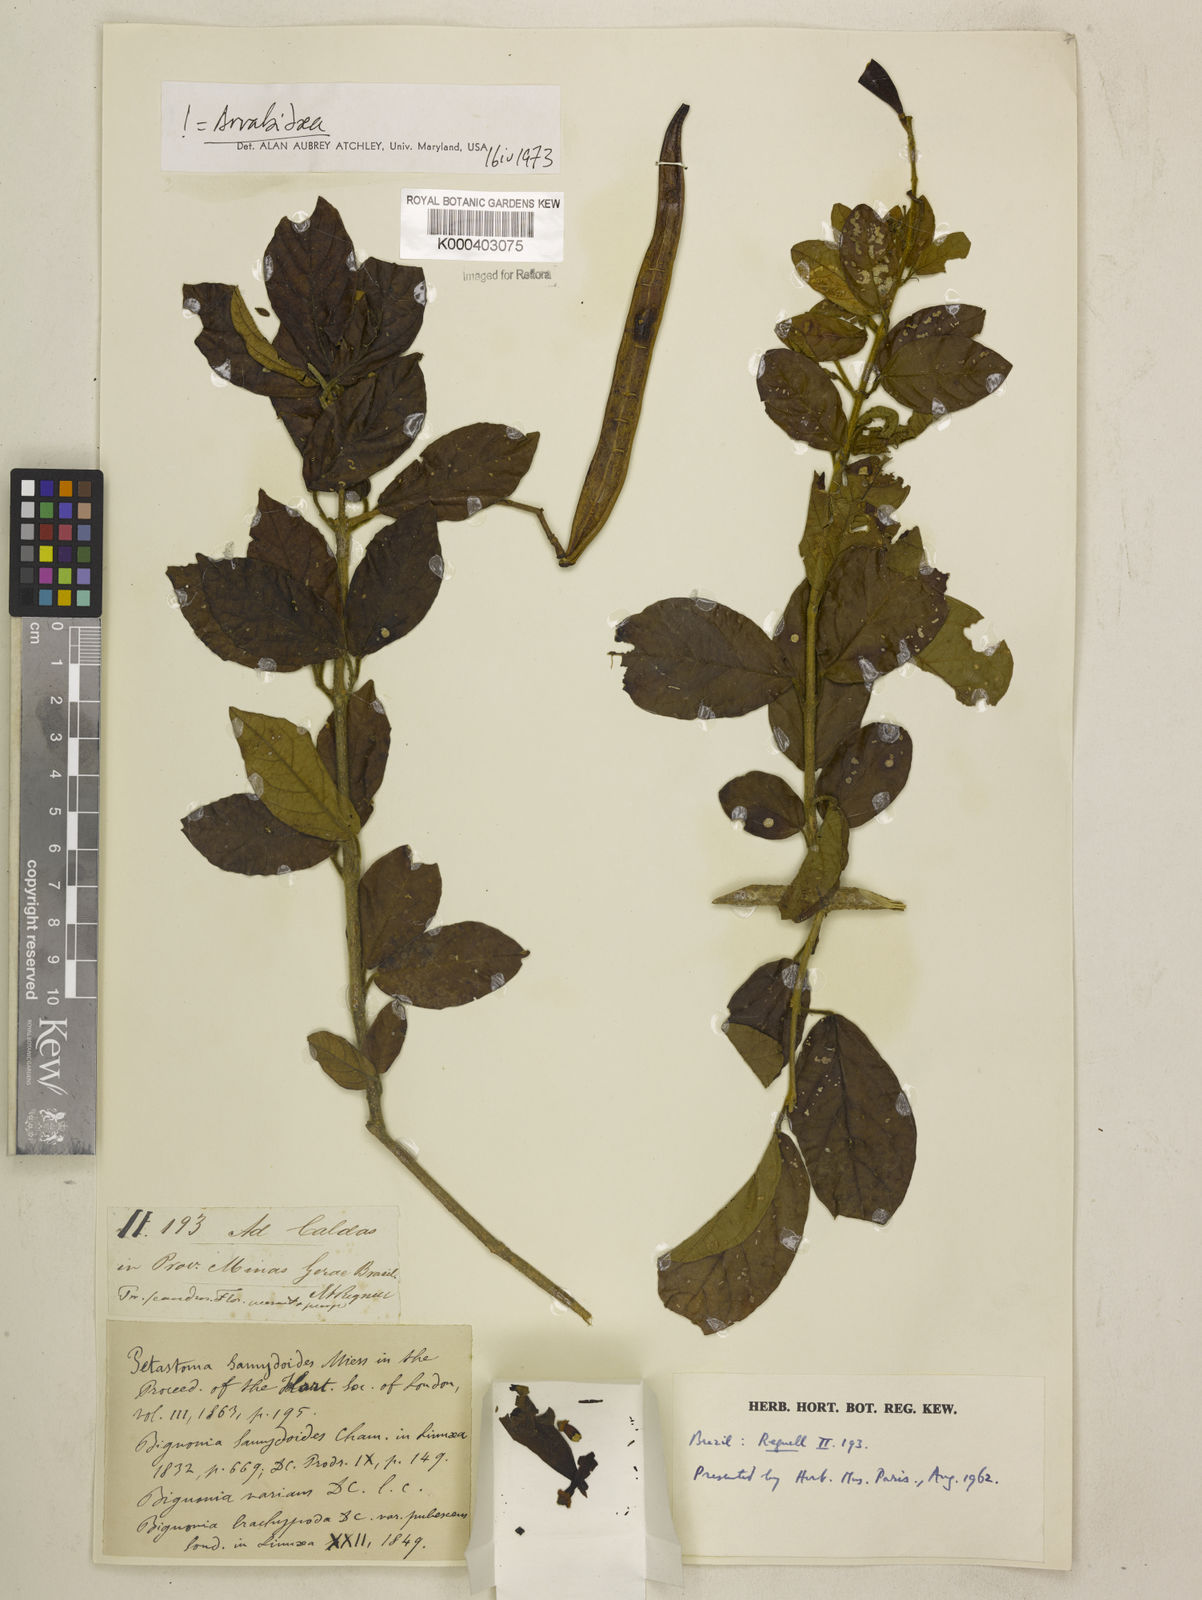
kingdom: Plantae
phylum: Tracheophyta
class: Magnoliopsida
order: Lamiales
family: Bignoniaceae
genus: Fridericia
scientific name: Fridericia samydoides
